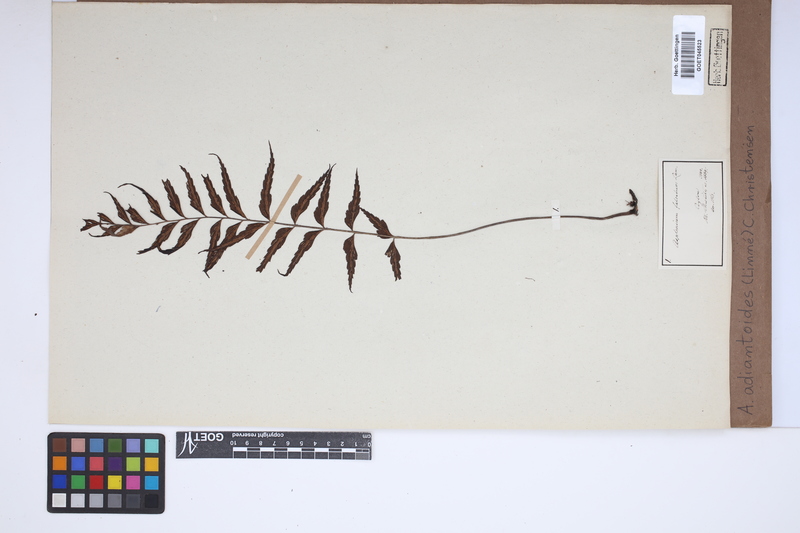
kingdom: Plantae
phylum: Tracheophyta
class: Polypodiopsida
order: Polypodiales
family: Aspleniaceae
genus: Asplenium
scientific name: Asplenium aethiopicum
